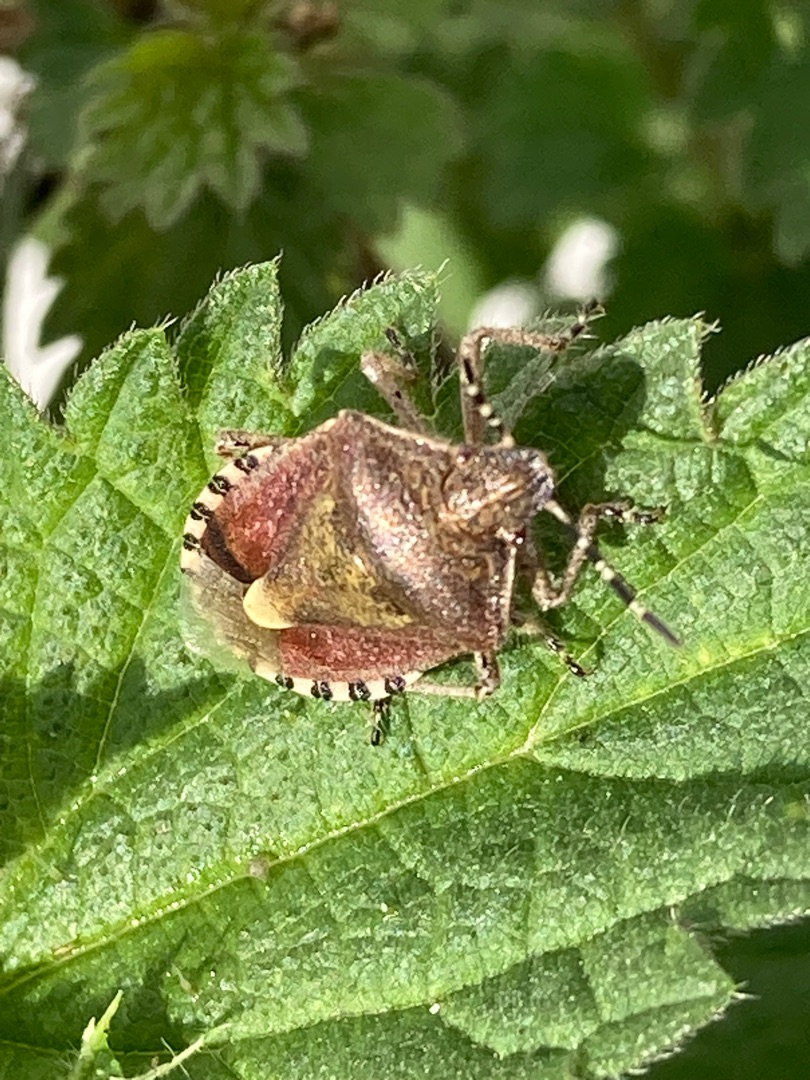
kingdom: Animalia
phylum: Arthropoda
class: Insecta
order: Hemiptera
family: Pentatomidae
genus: Dolycoris
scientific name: Dolycoris baccarum
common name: Almindelig bærtæge
